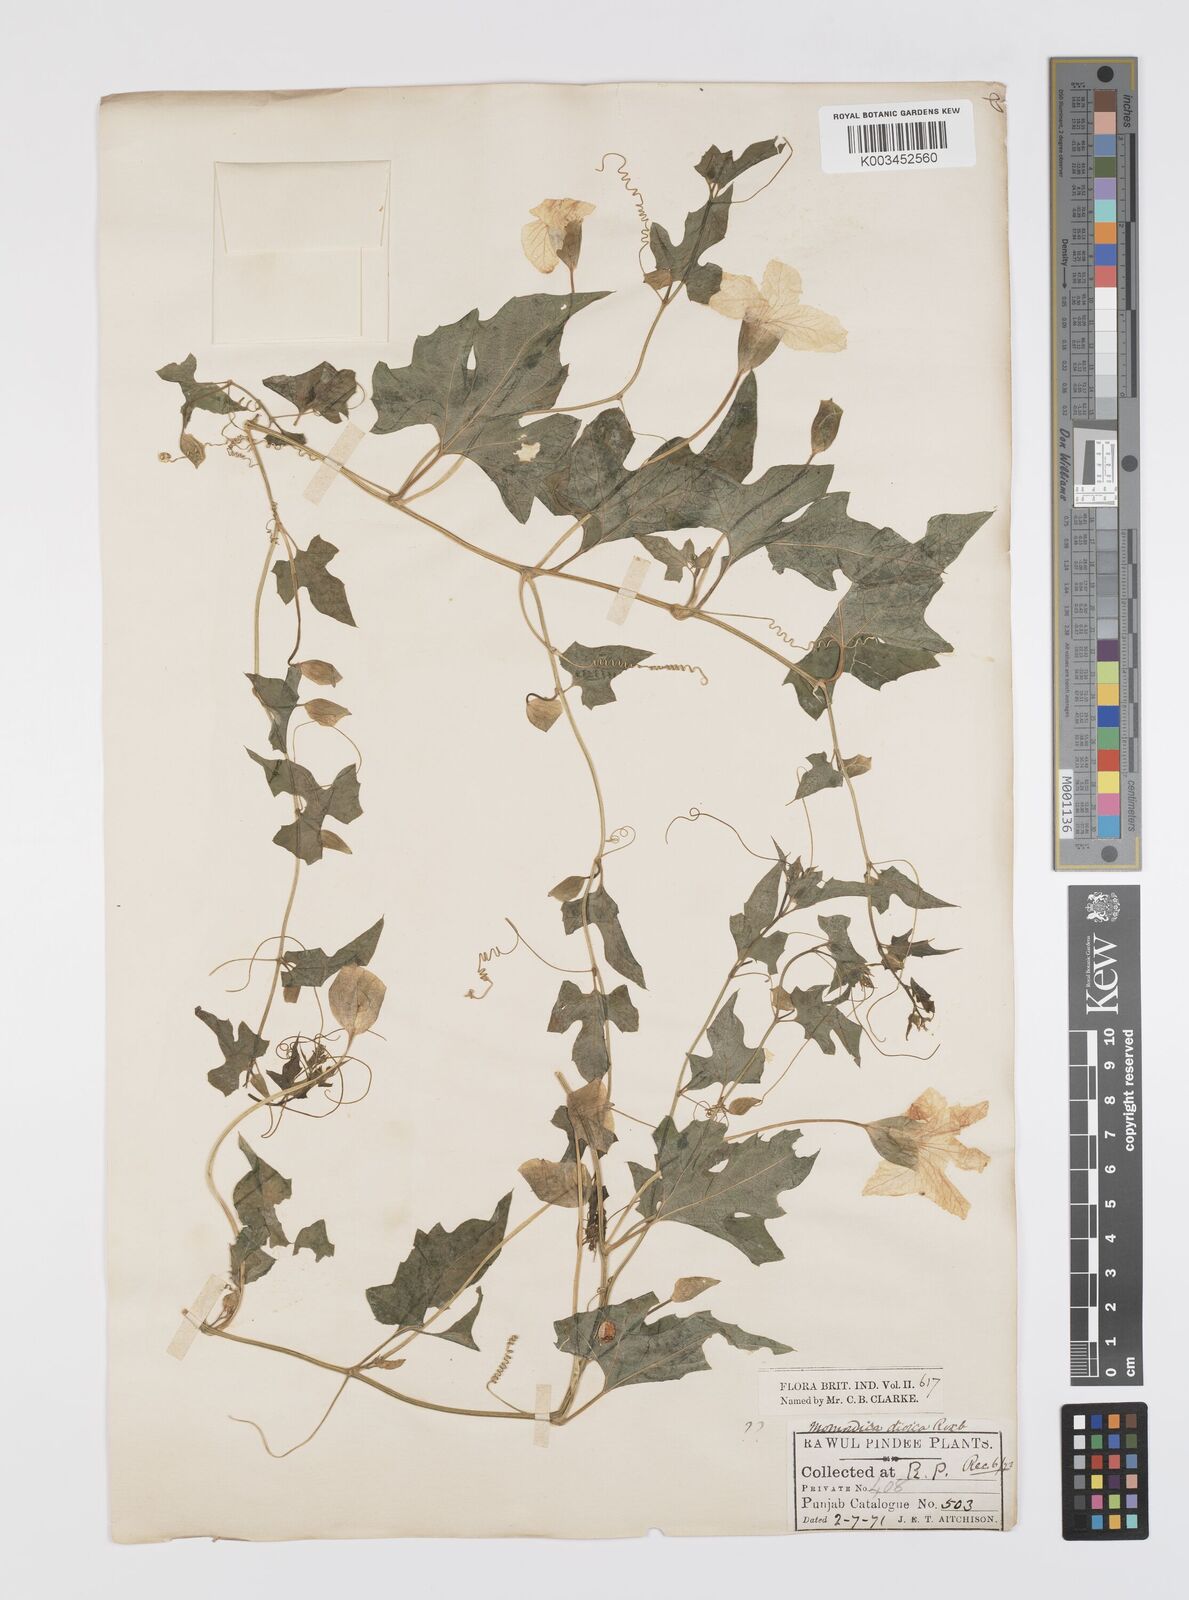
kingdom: Plantae
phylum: Tracheophyta
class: Magnoliopsida
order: Cucurbitales
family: Cucurbitaceae
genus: Momordica
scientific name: Momordica dioica
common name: Spine gourd
